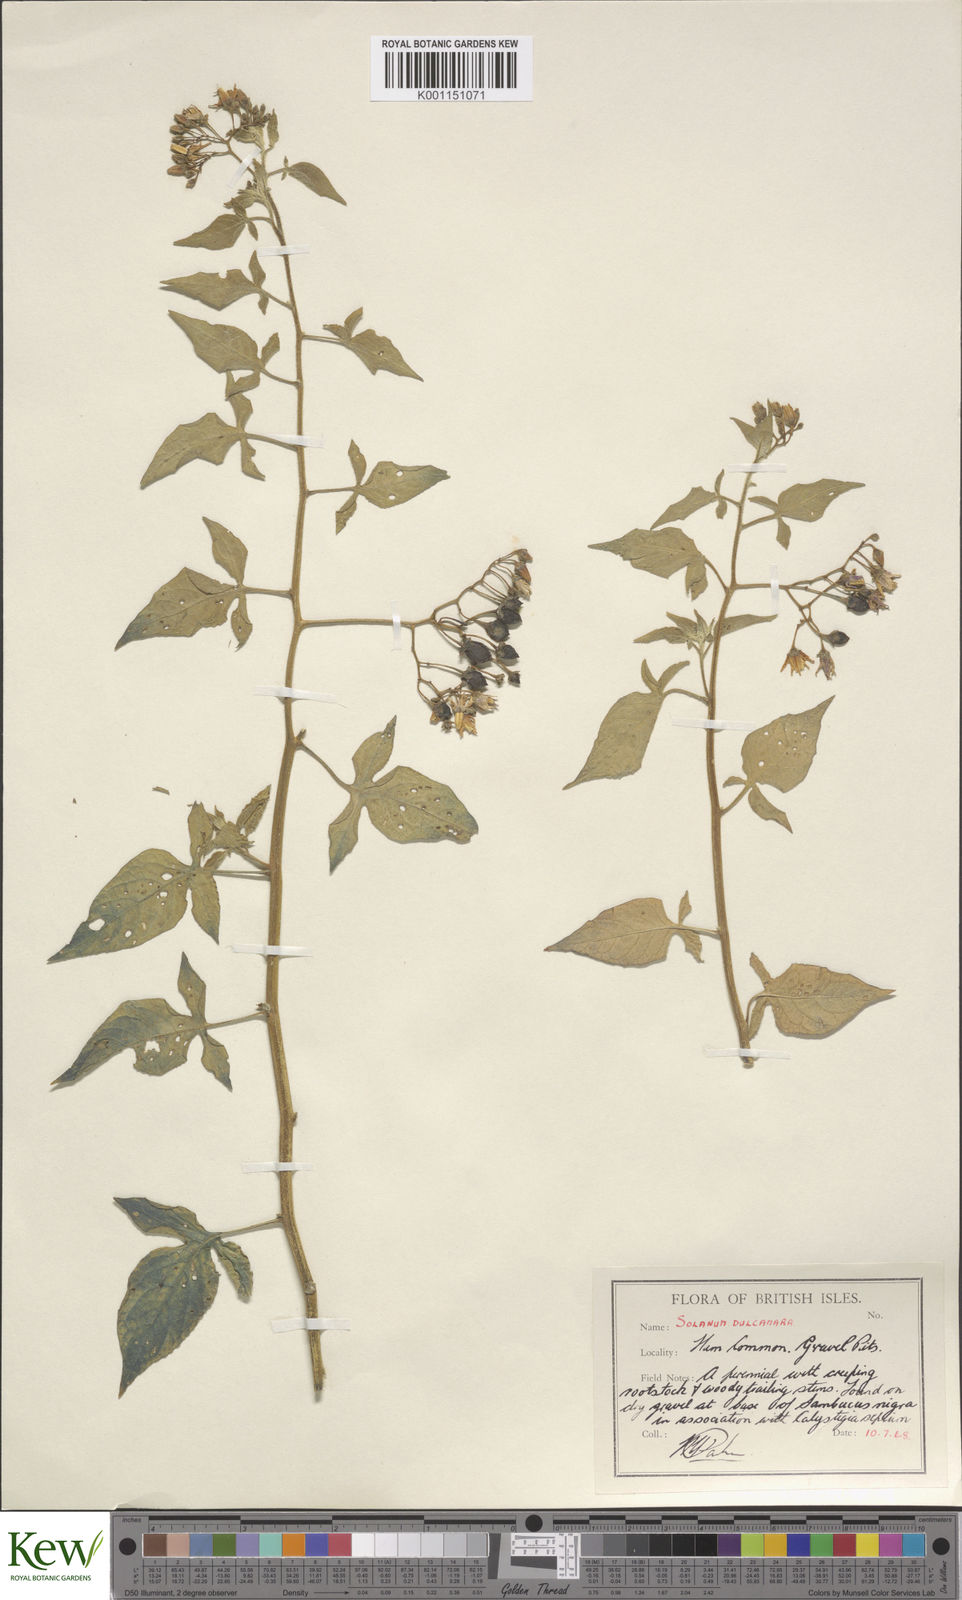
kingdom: Plantae
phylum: Tracheophyta
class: Magnoliopsida
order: Solanales
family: Solanaceae
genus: Solanum
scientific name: Solanum dulcamara
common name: Climbing nightshade
